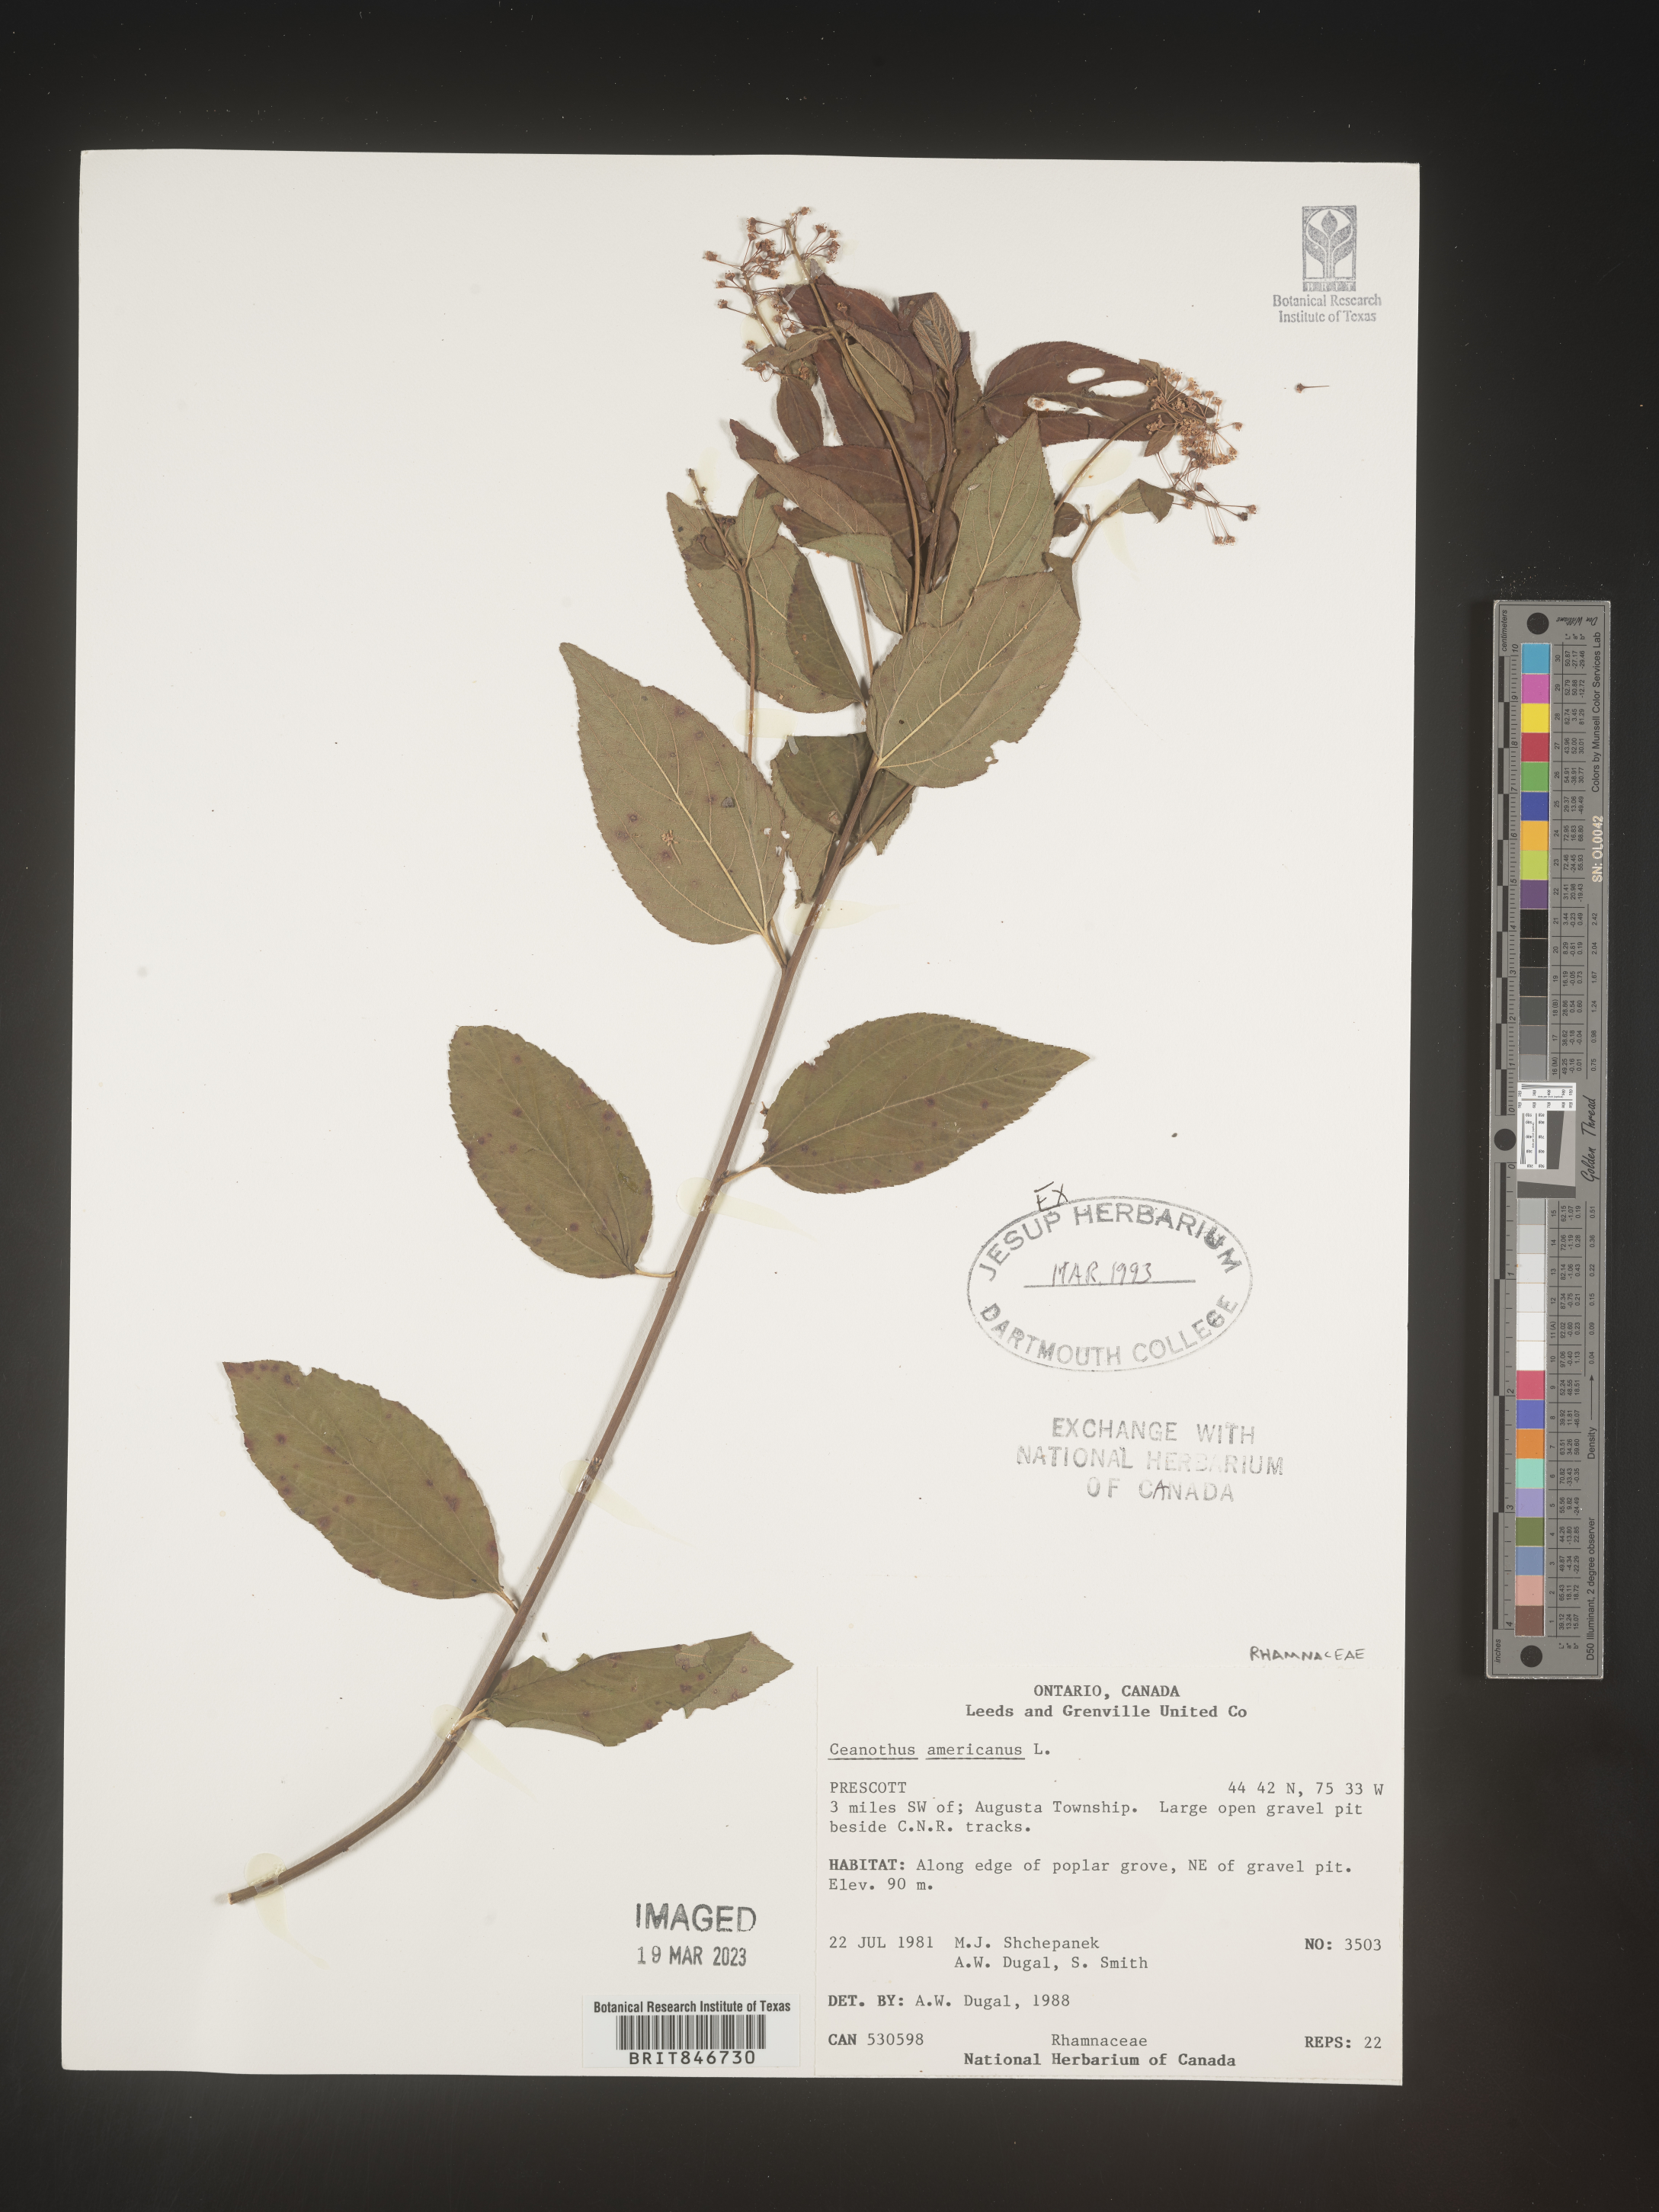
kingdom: Plantae
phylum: Tracheophyta
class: Magnoliopsida
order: Rosales
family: Rhamnaceae
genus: Ceanothus
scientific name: Ceanothus americanus
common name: Redroot
